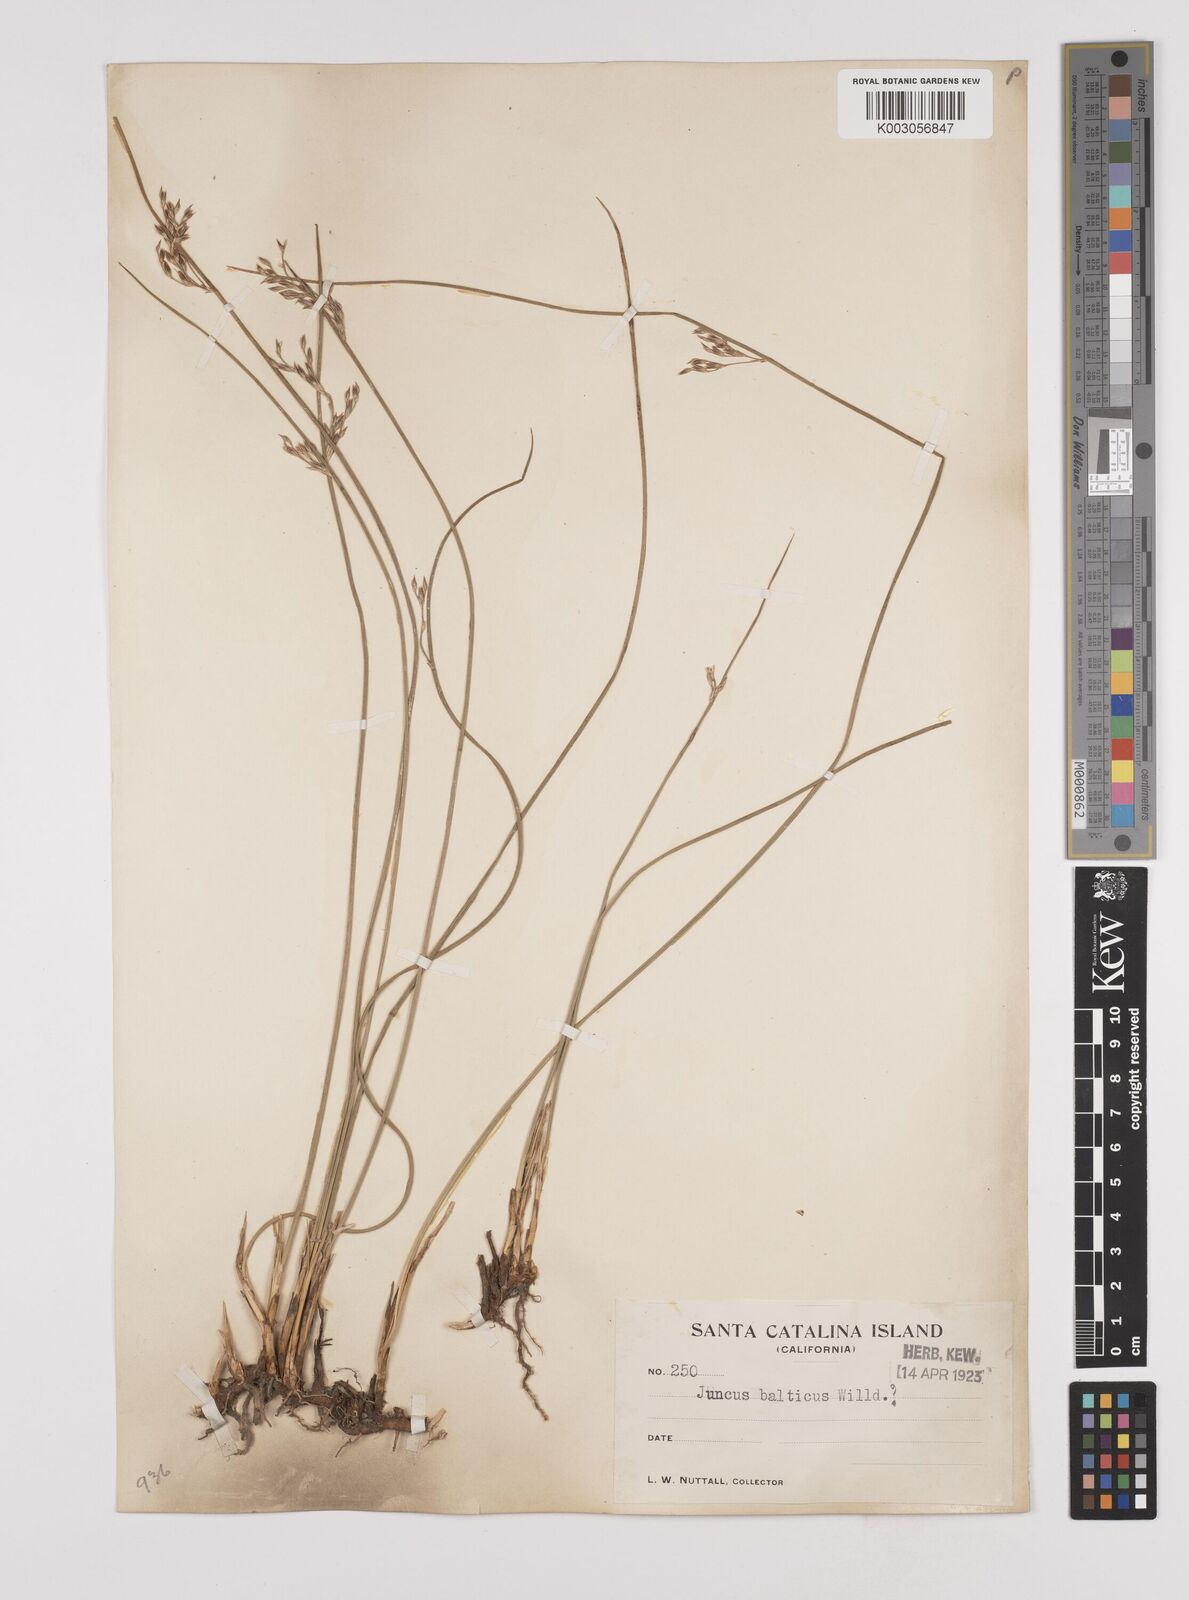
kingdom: Plantae
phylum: Tracheophyta
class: Liliopsida
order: Poales
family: Juncaceae
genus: Juncus
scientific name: Juncus balticus
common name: Baltic rush
